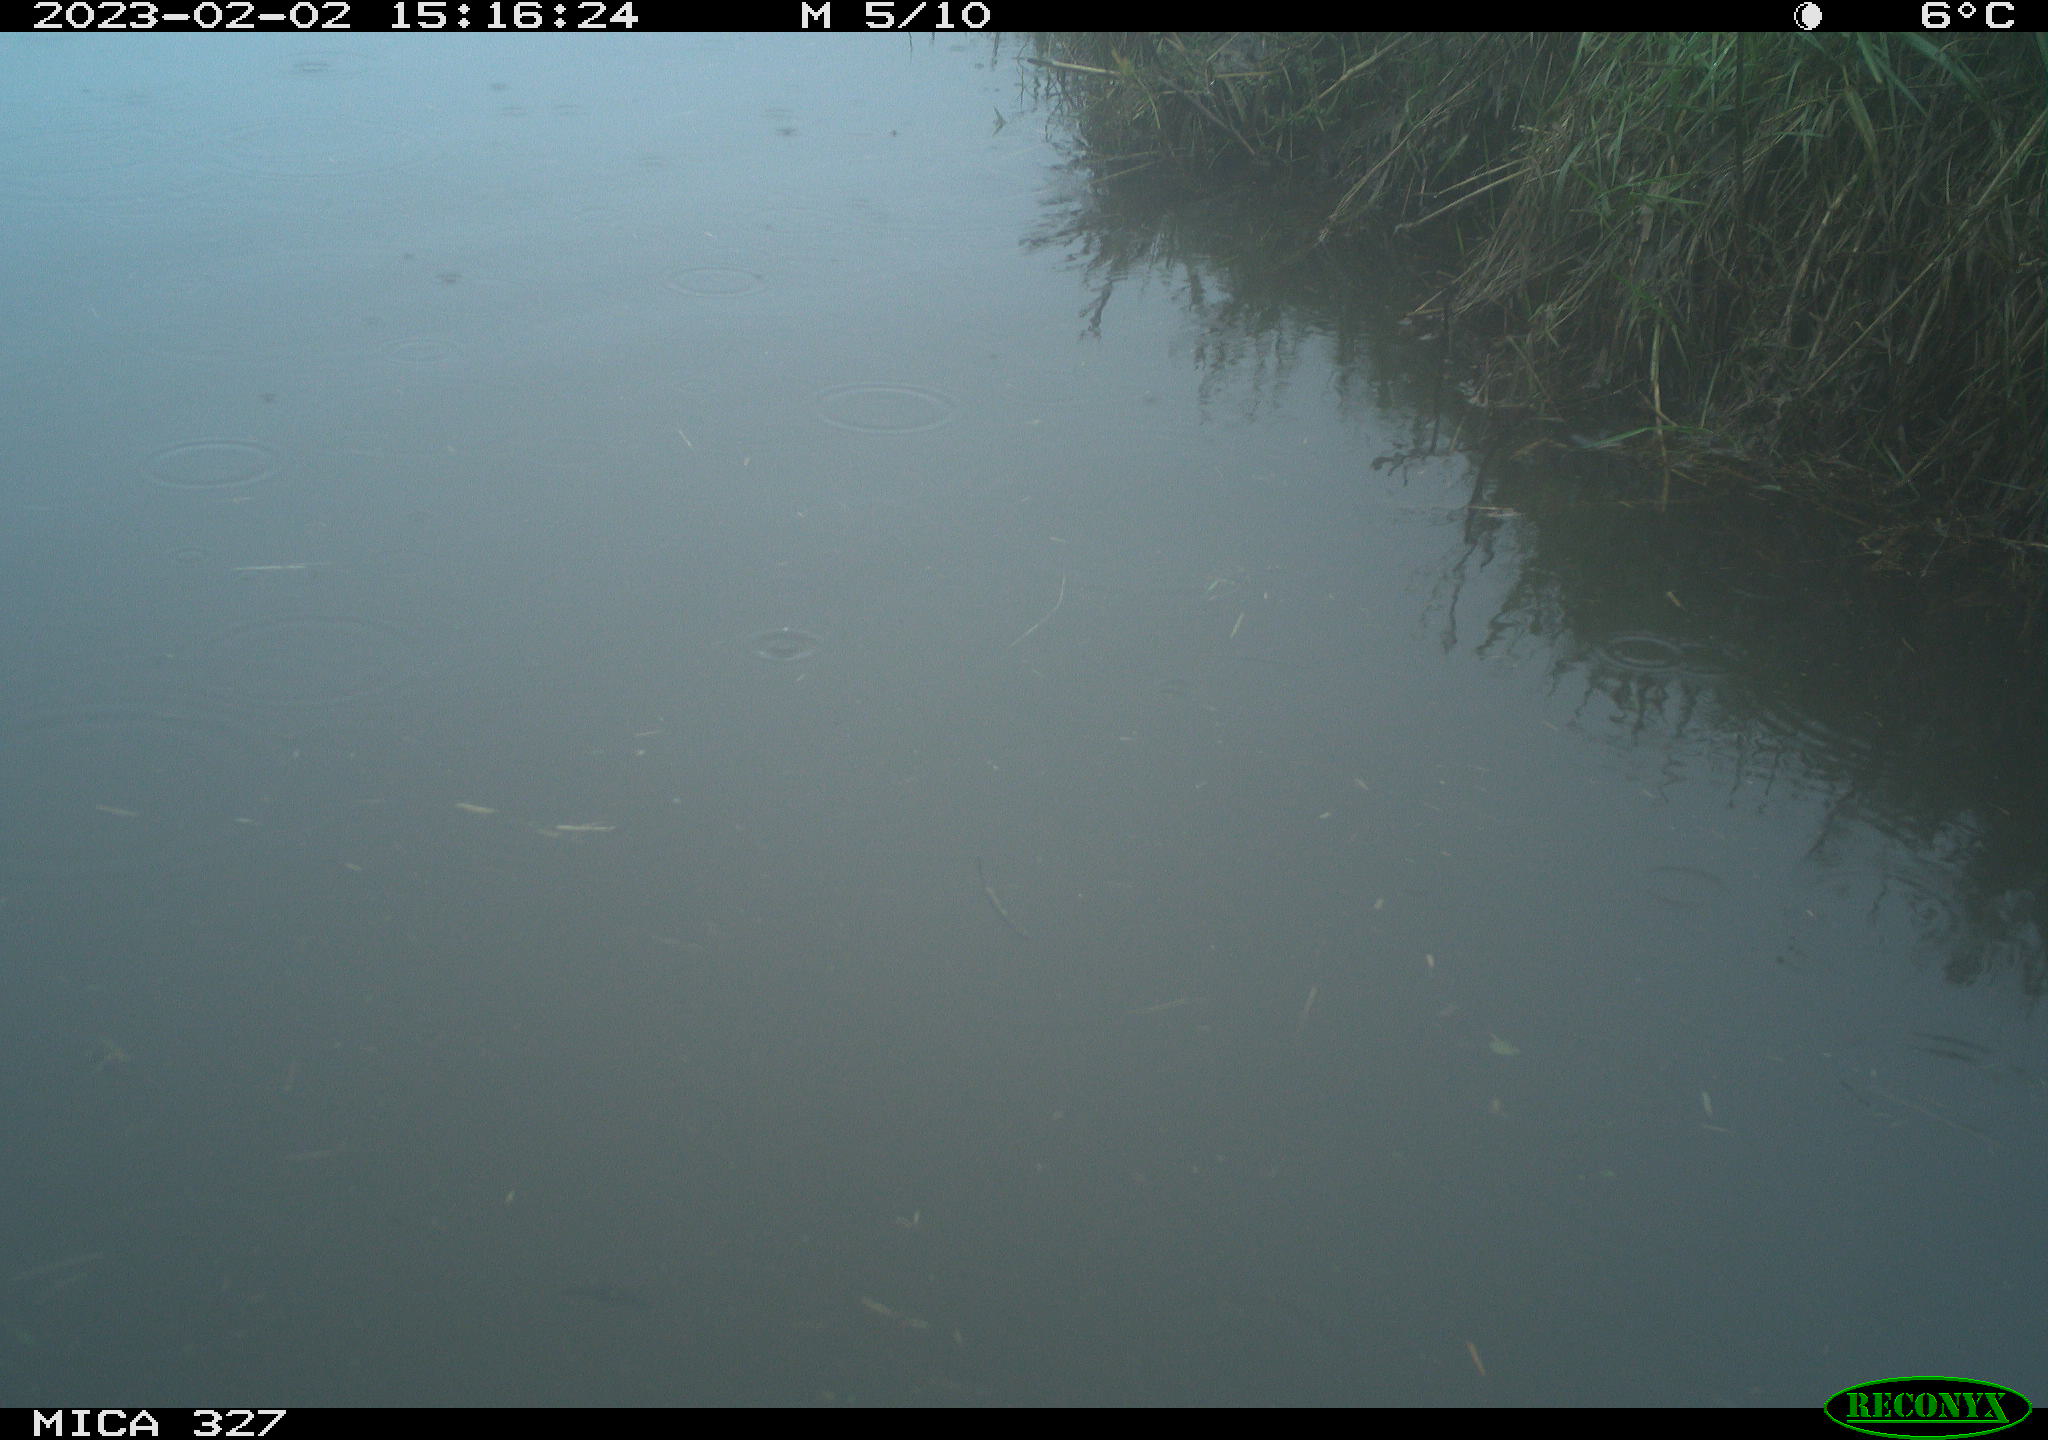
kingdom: Animalia
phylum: Chordata
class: Aves
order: Gruiformes
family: Rallidae
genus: Gallinula
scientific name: Gallinula chloropus
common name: Common moorhen
